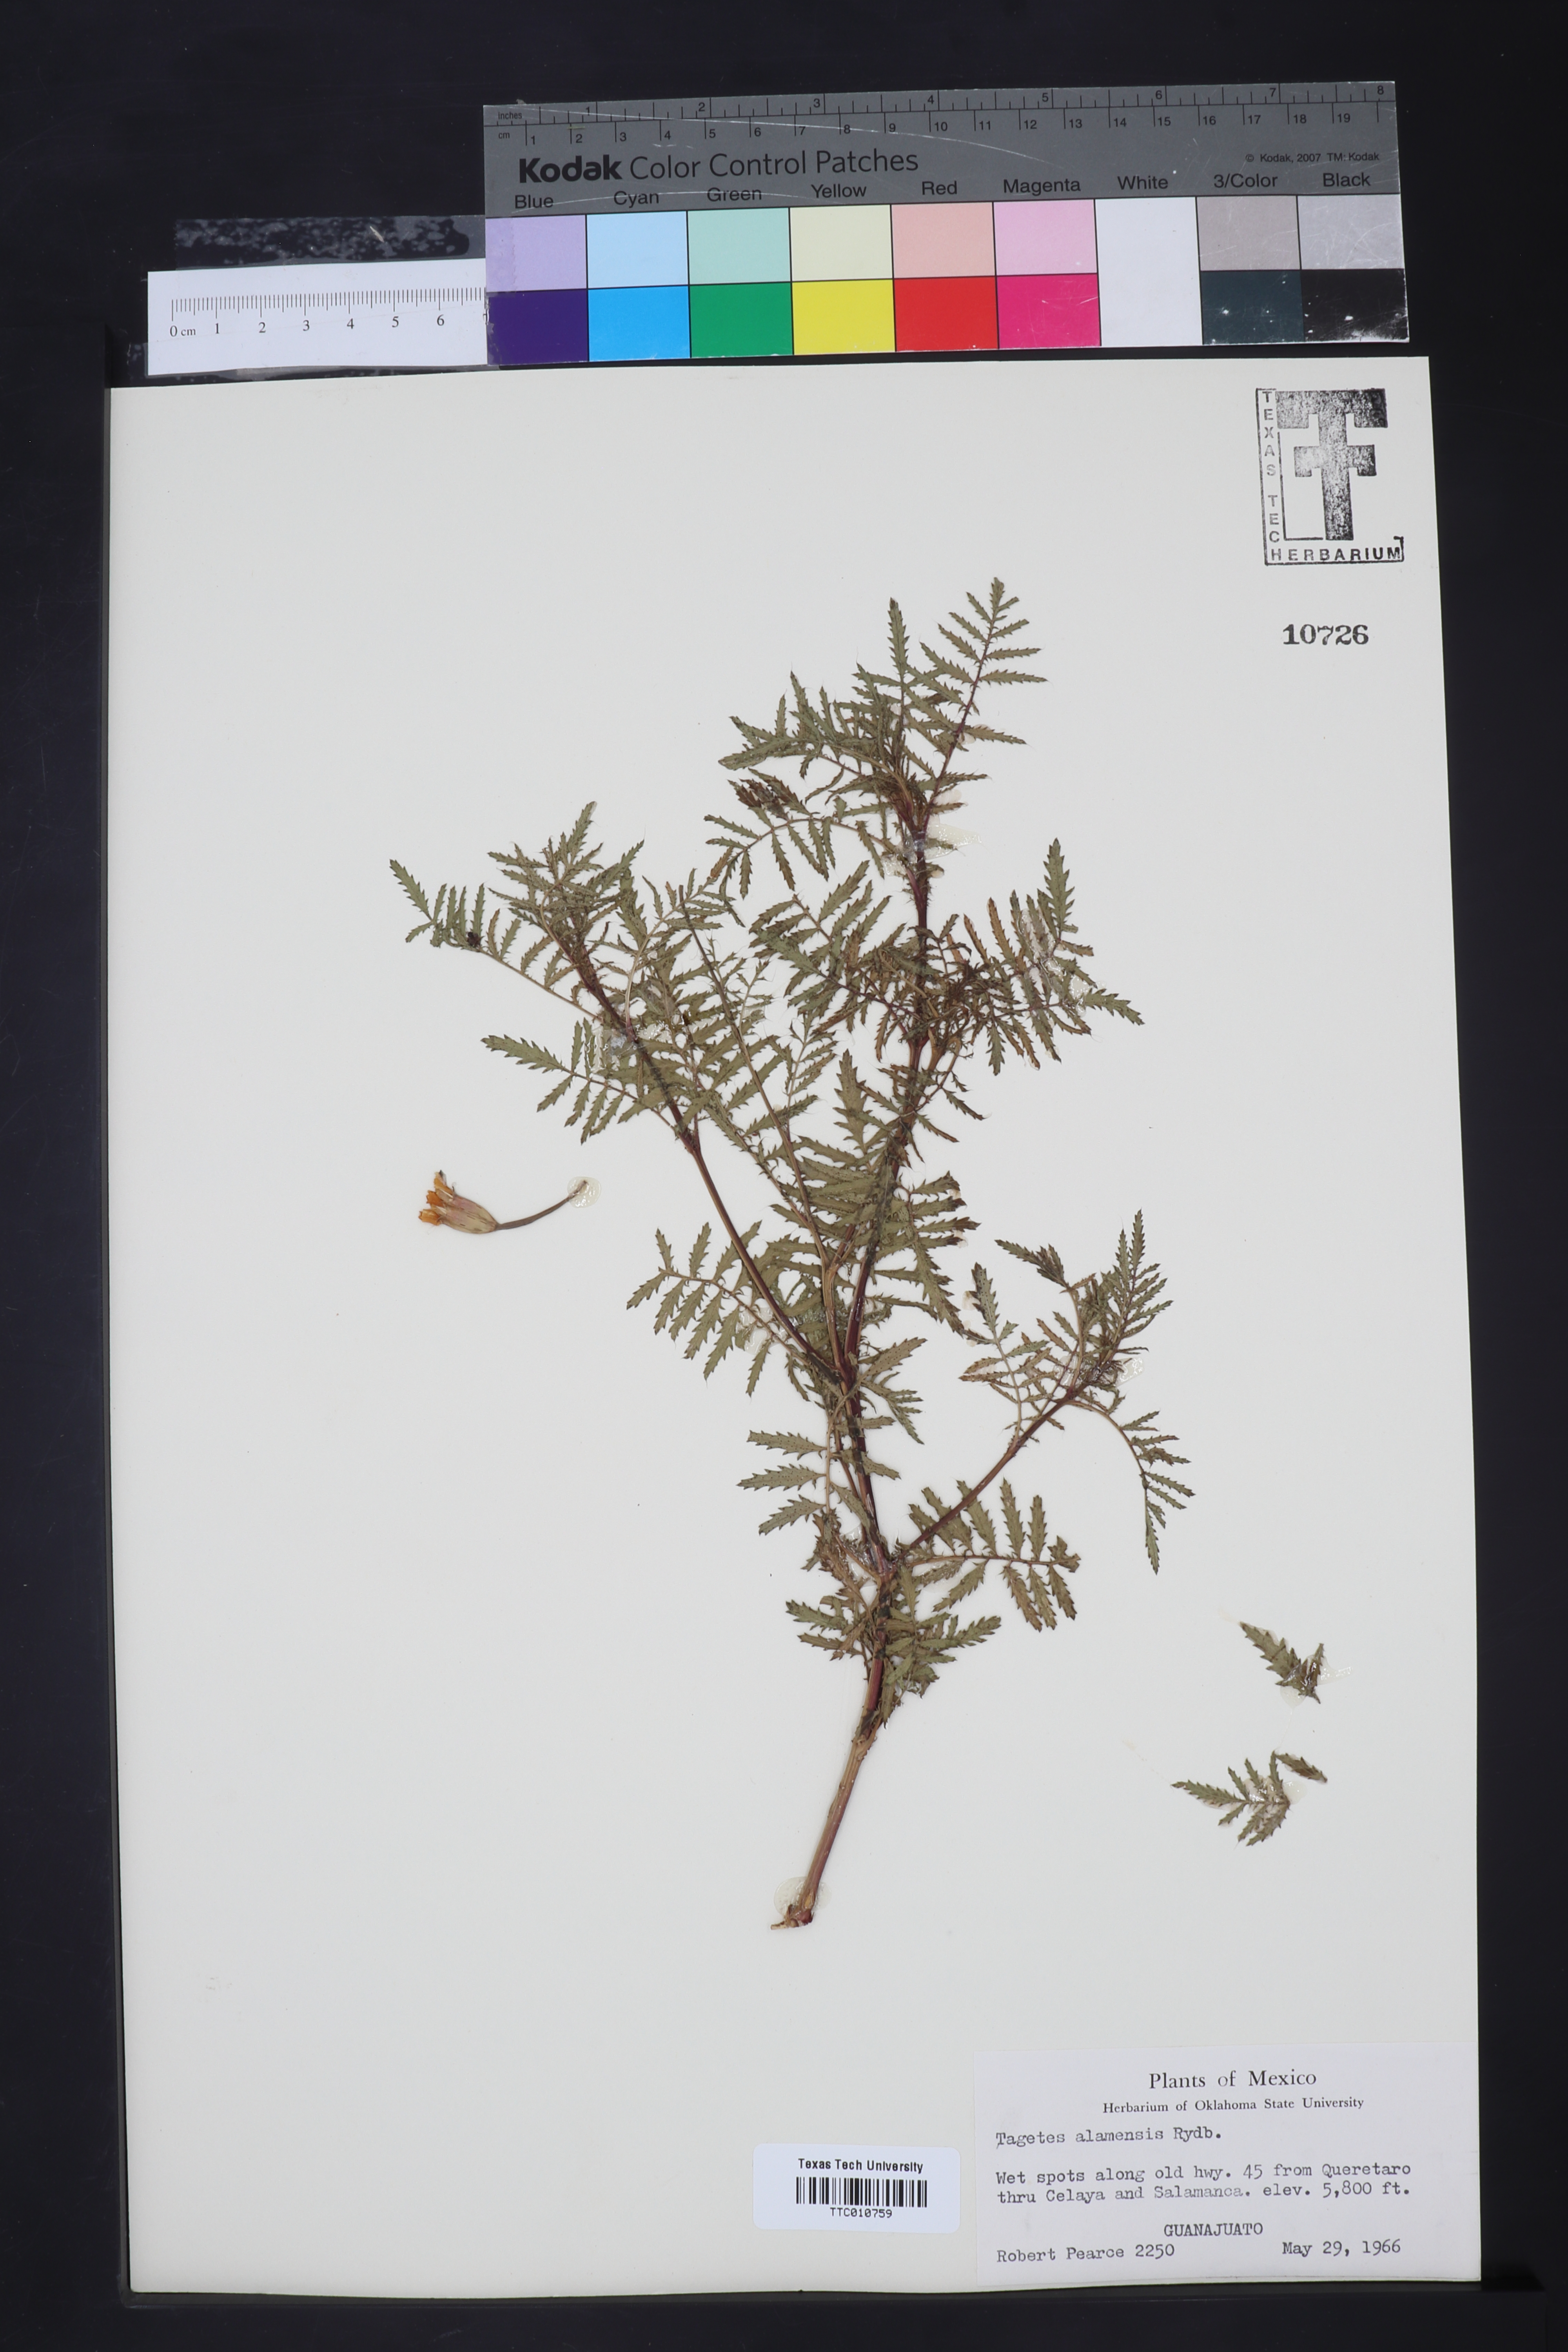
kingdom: Plantae
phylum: Tracheophyta
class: Magnoliopsida
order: Asterales
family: Asteraceae
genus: Tagetes
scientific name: Tagetes palmeri
